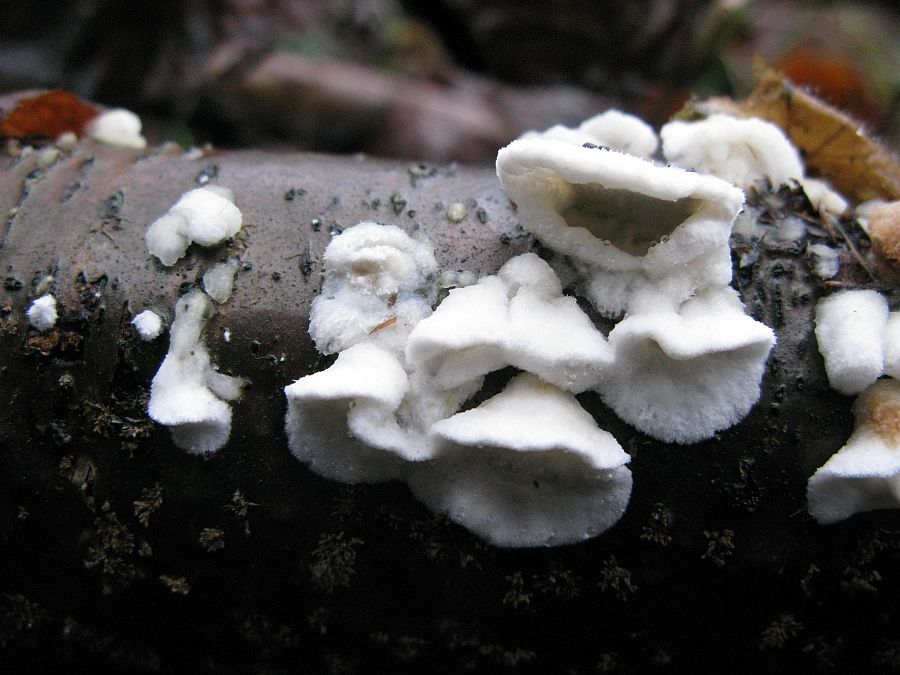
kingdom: Fungi
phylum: Basidiomycota
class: Agaricomycetes
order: Polyporales
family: Irpicaceae
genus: Byssomerulius
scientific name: Byssomerulius corium
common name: læder-åresvamp
